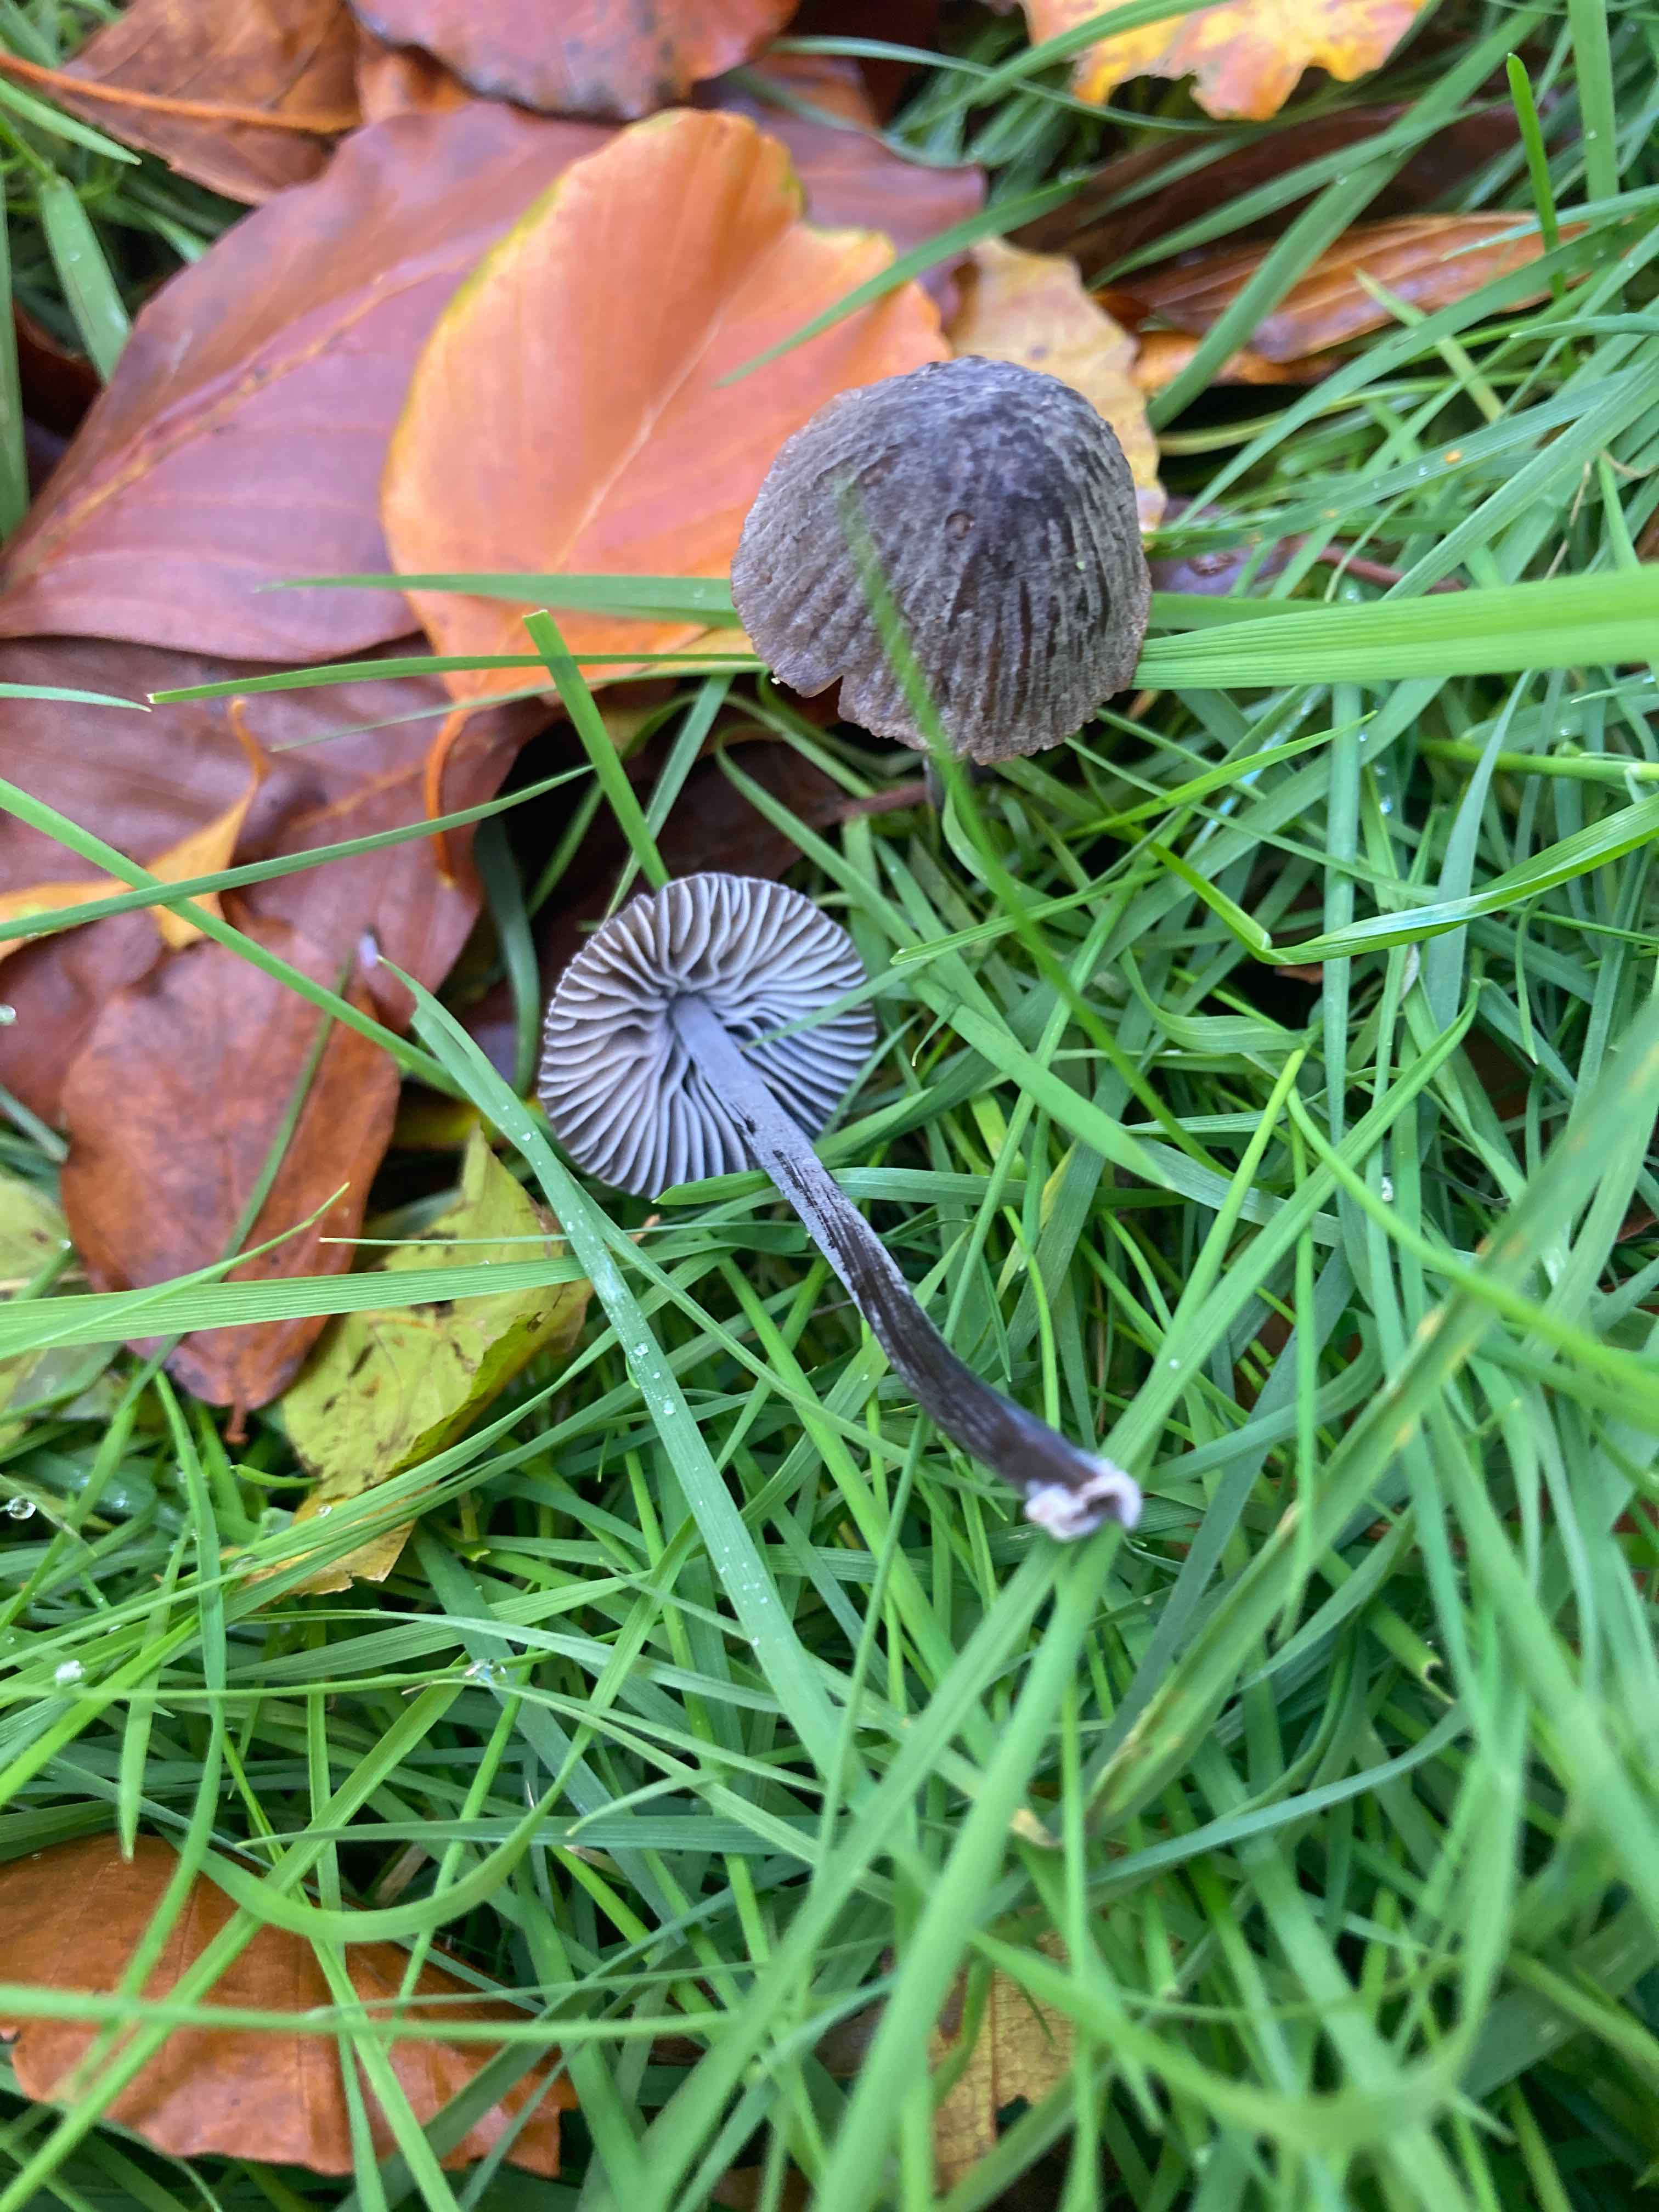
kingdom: Fungi
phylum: Basidiomycota
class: Agaricomycetes
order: Agaricales
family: Mycenaceae
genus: Mycena
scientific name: Mycena galopus
